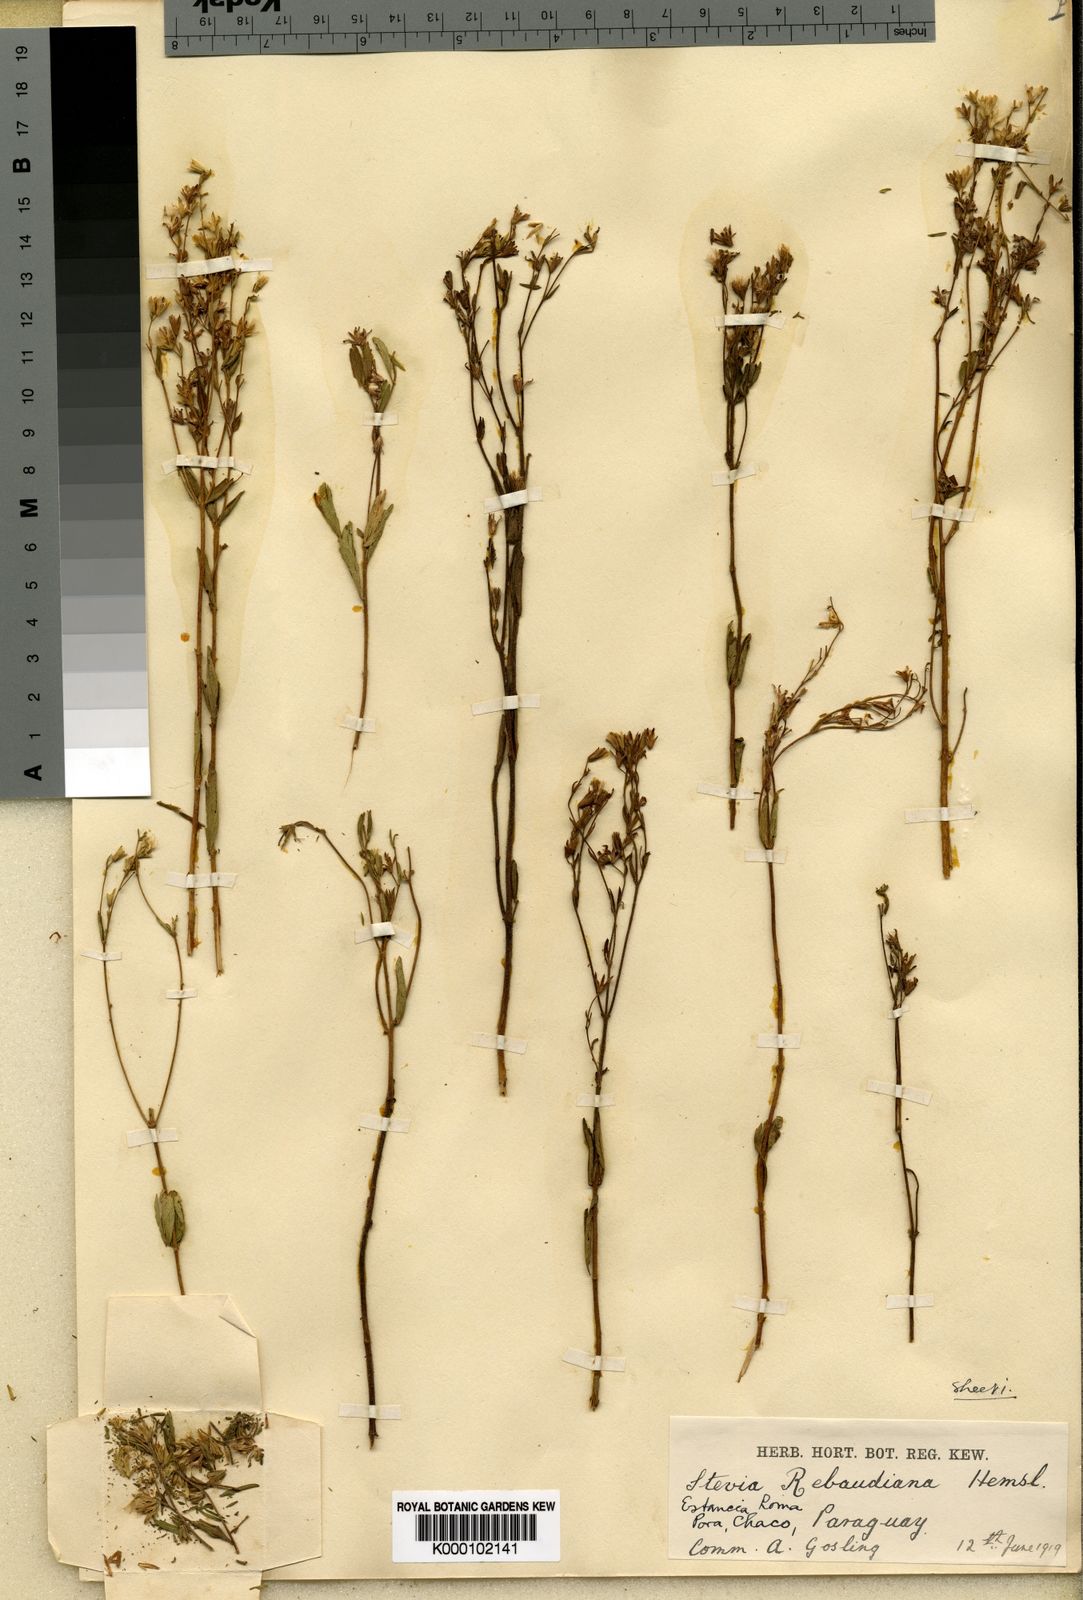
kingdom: Plantae
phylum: Tracheophyta
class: Magnoliopsida
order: Asterales
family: Asteraceae
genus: Stevia
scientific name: Stevia rebaudiana
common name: Stevia
